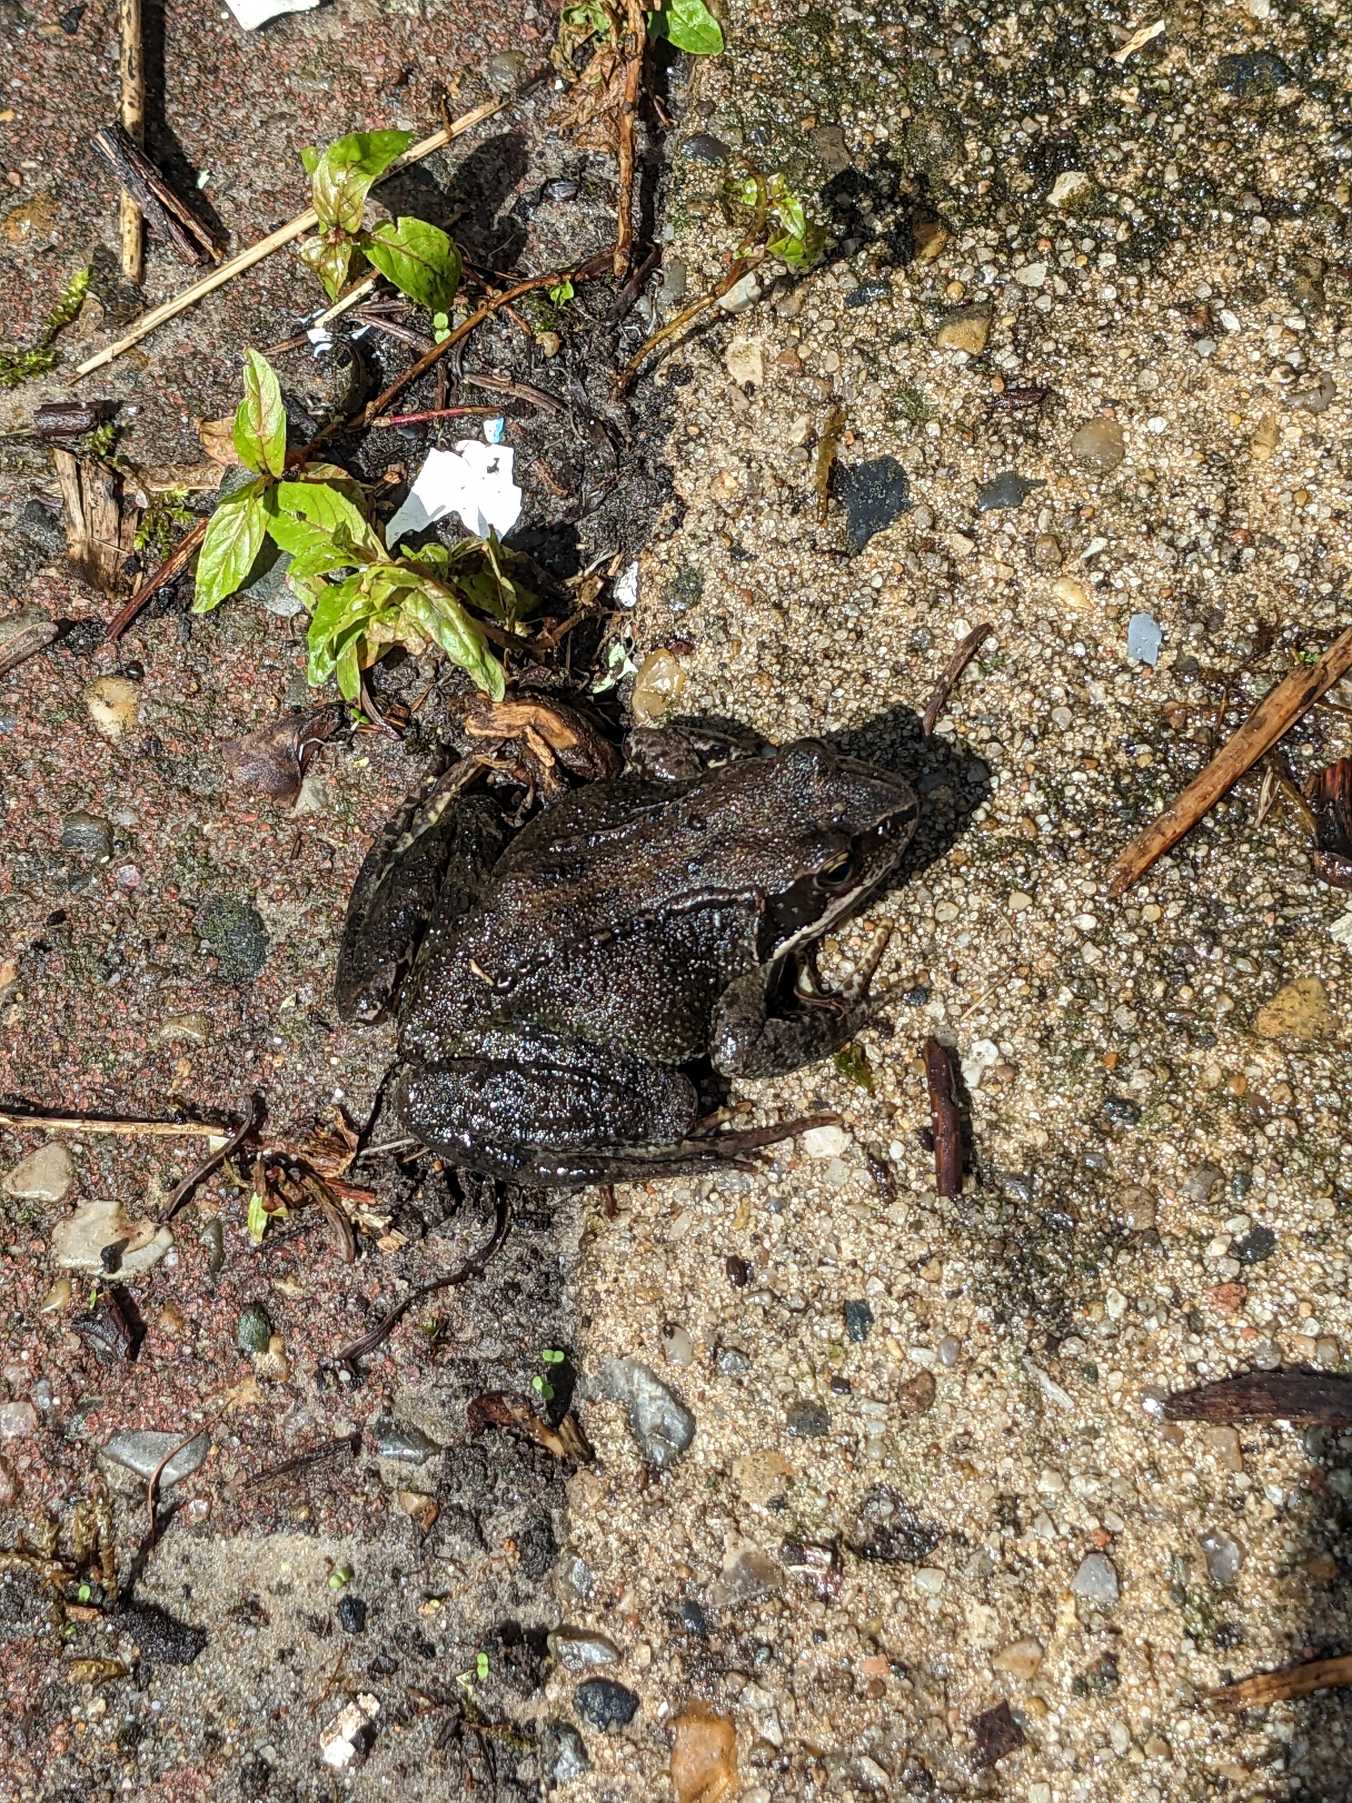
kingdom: Animalia
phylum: Chordata
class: Amphibia
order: Anura
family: Ranidae
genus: Rana
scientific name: Rana temporaria
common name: Butsnudet frø
